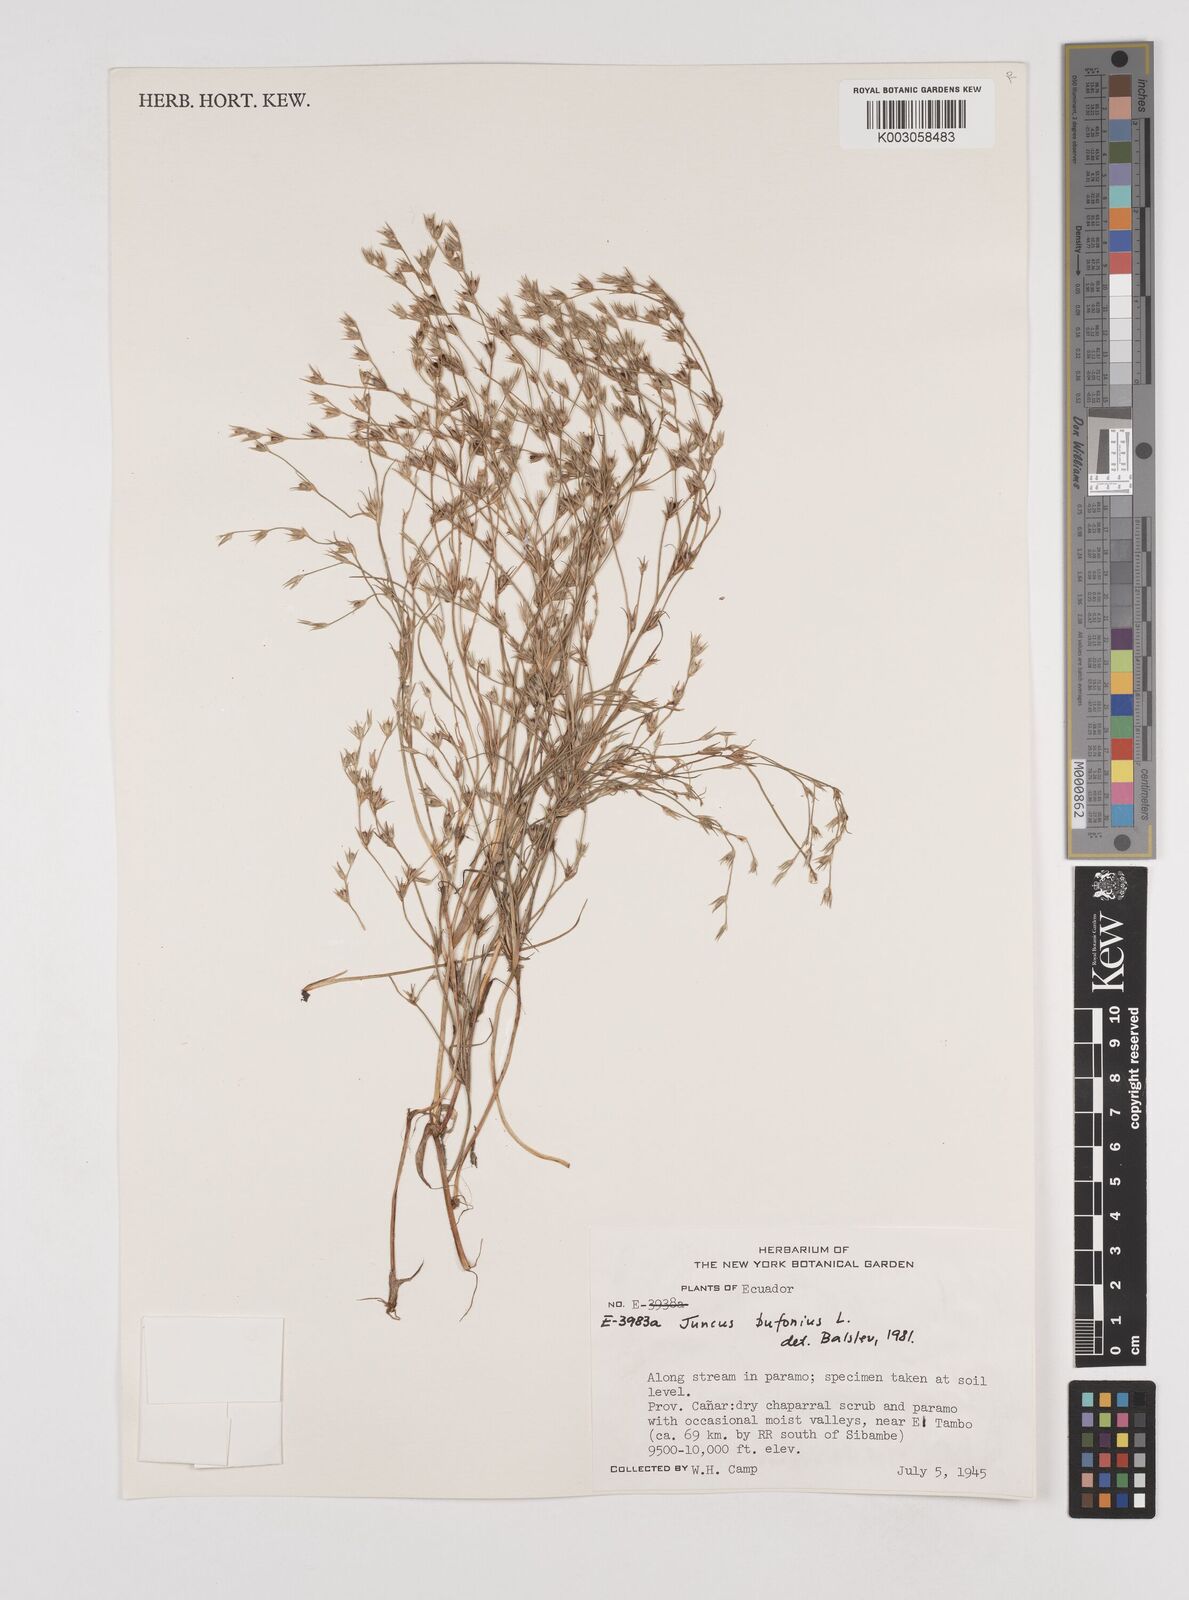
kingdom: Plantae
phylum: Tracheophyta
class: Liliopsida
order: Poales
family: Juncaceae
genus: Juncus
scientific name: Juncus bufonius
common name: Toad rush
